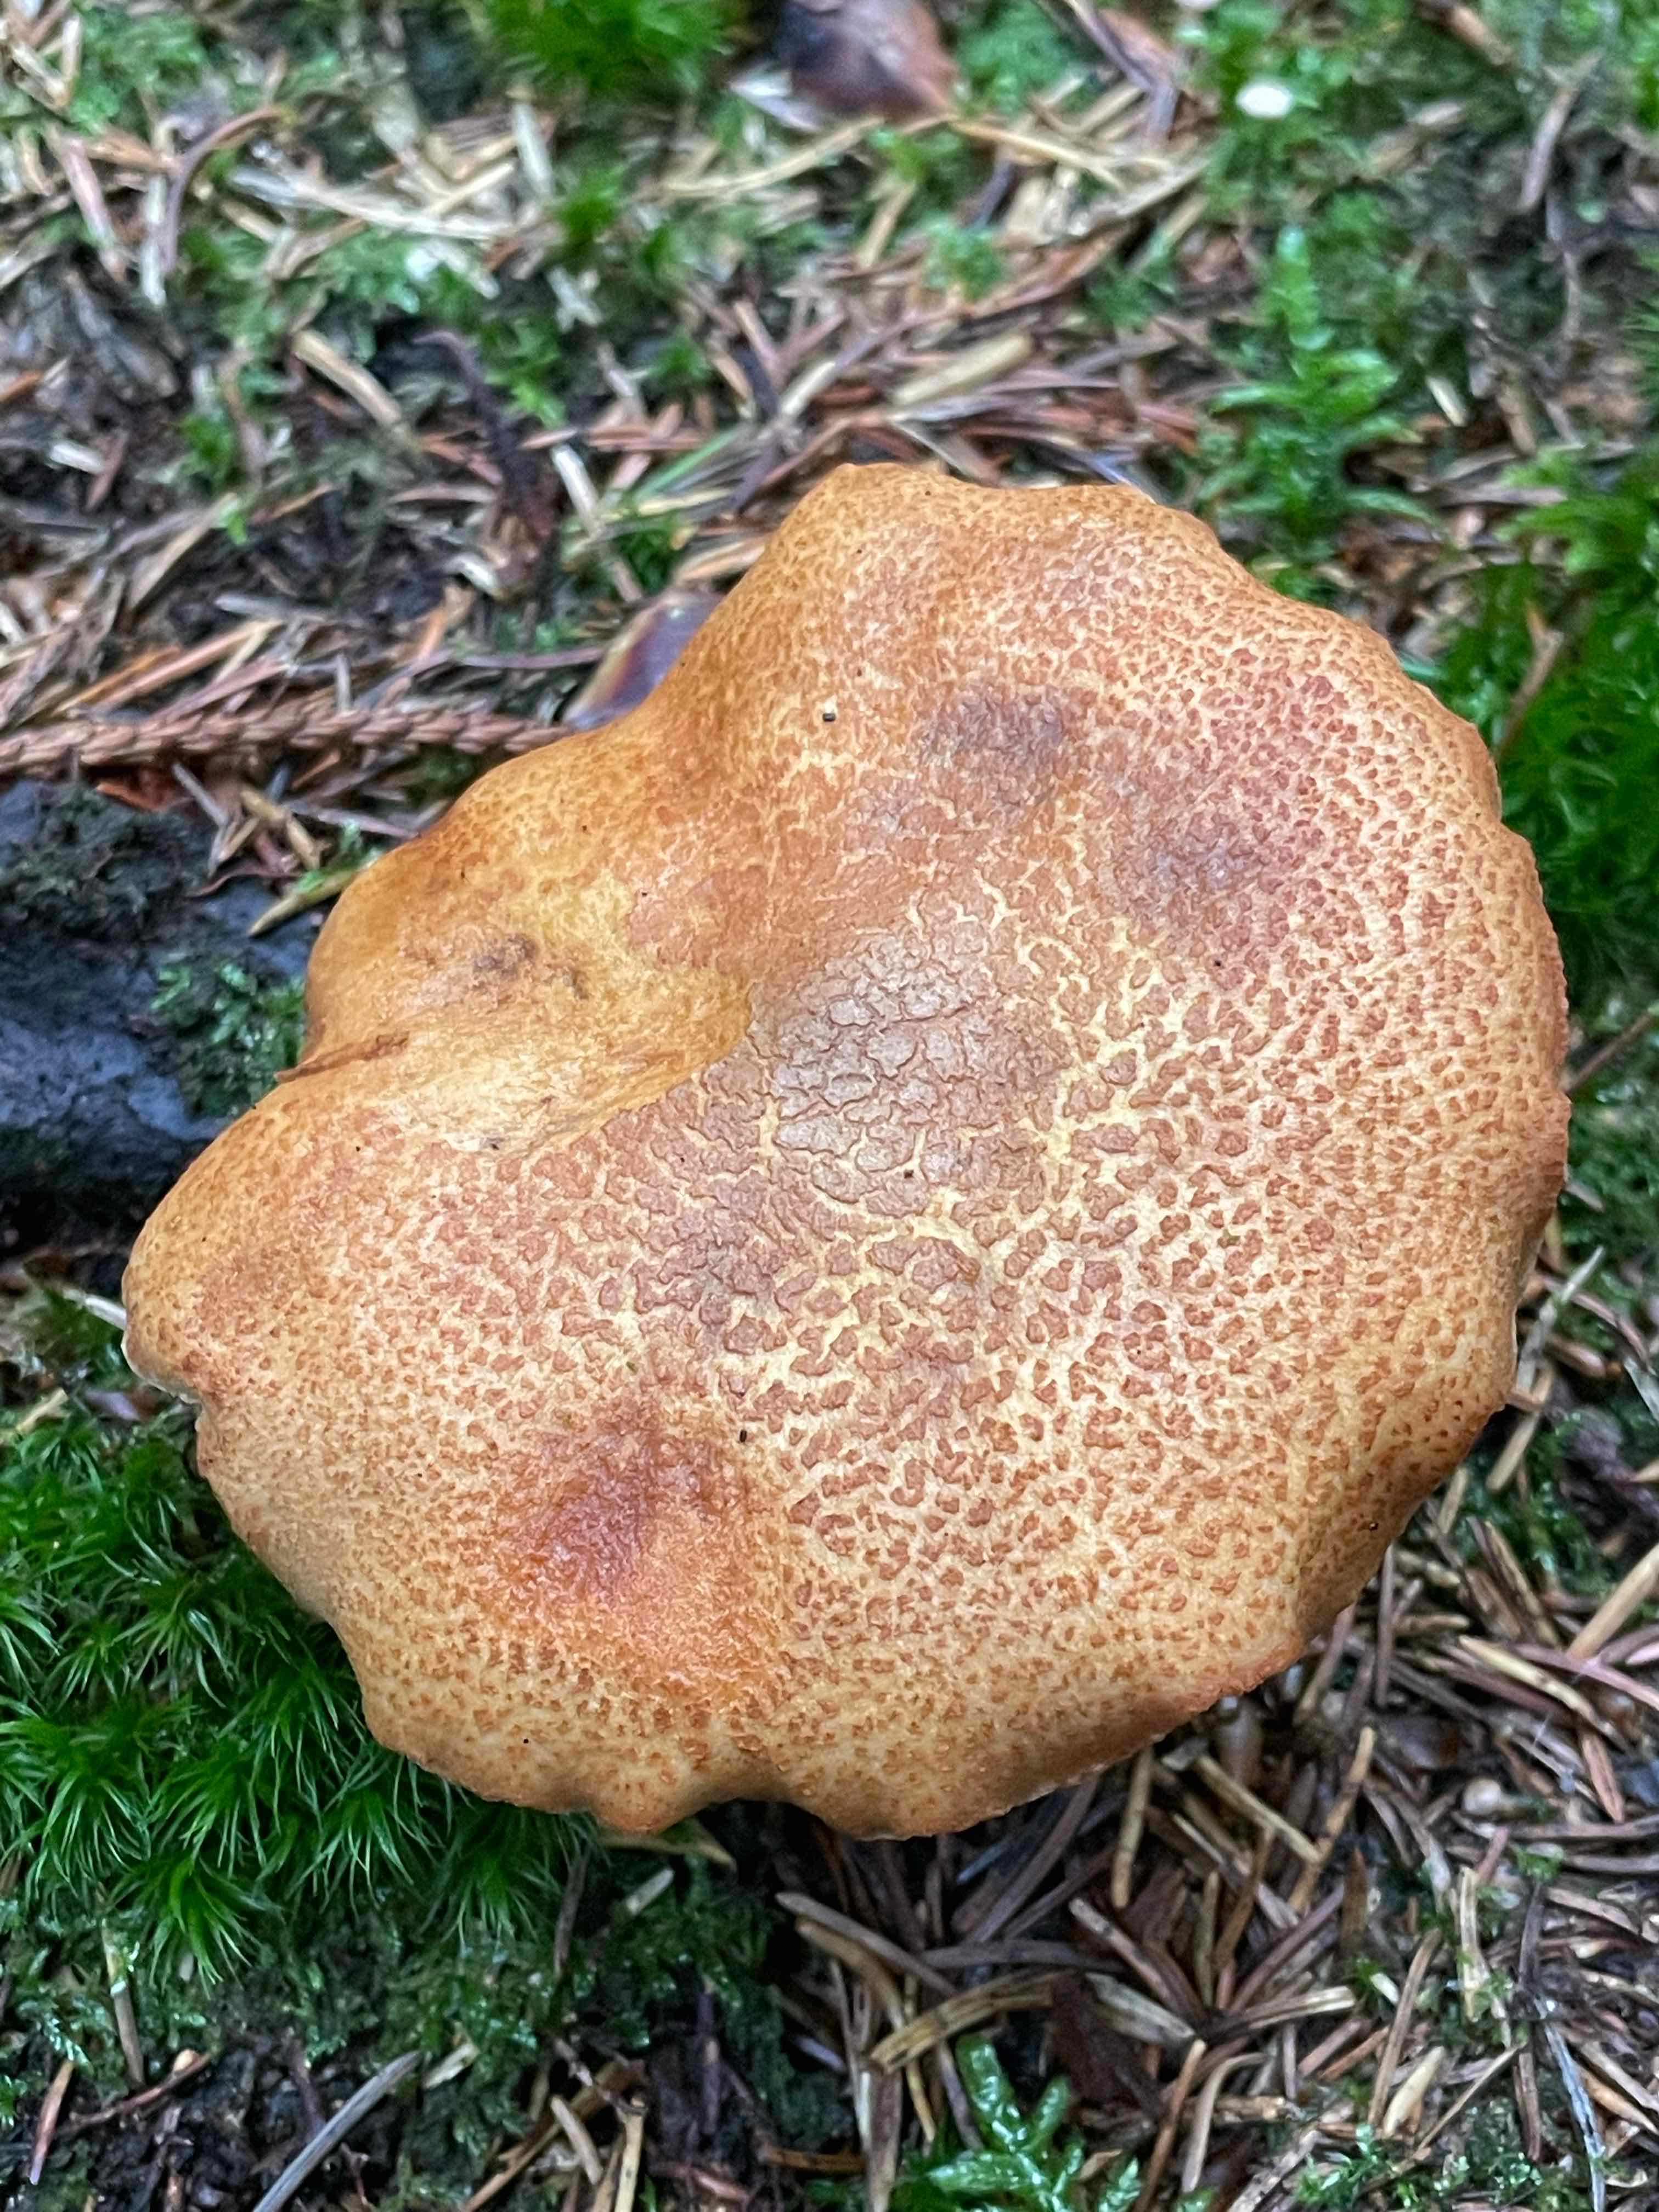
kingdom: Fungi
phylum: Basidiomycota
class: Agaricomycetes
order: Boletales
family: Boletaceae
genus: Chalciporus
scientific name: Chalciporus piperatus
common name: peberrørhat
